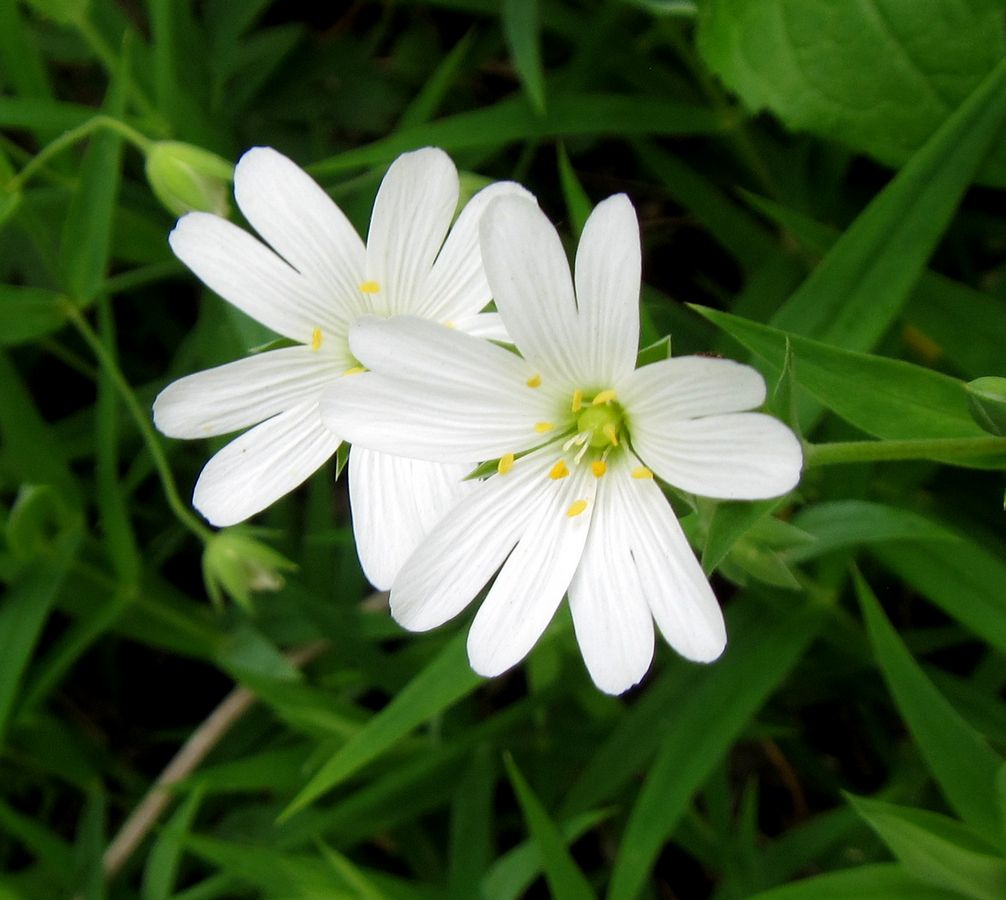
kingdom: Plantae
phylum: Tracheophyta
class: Magnoliopsida
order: Caryophyllales
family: Caryophyllaceae
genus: Rabelera
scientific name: Rabelera holostea
